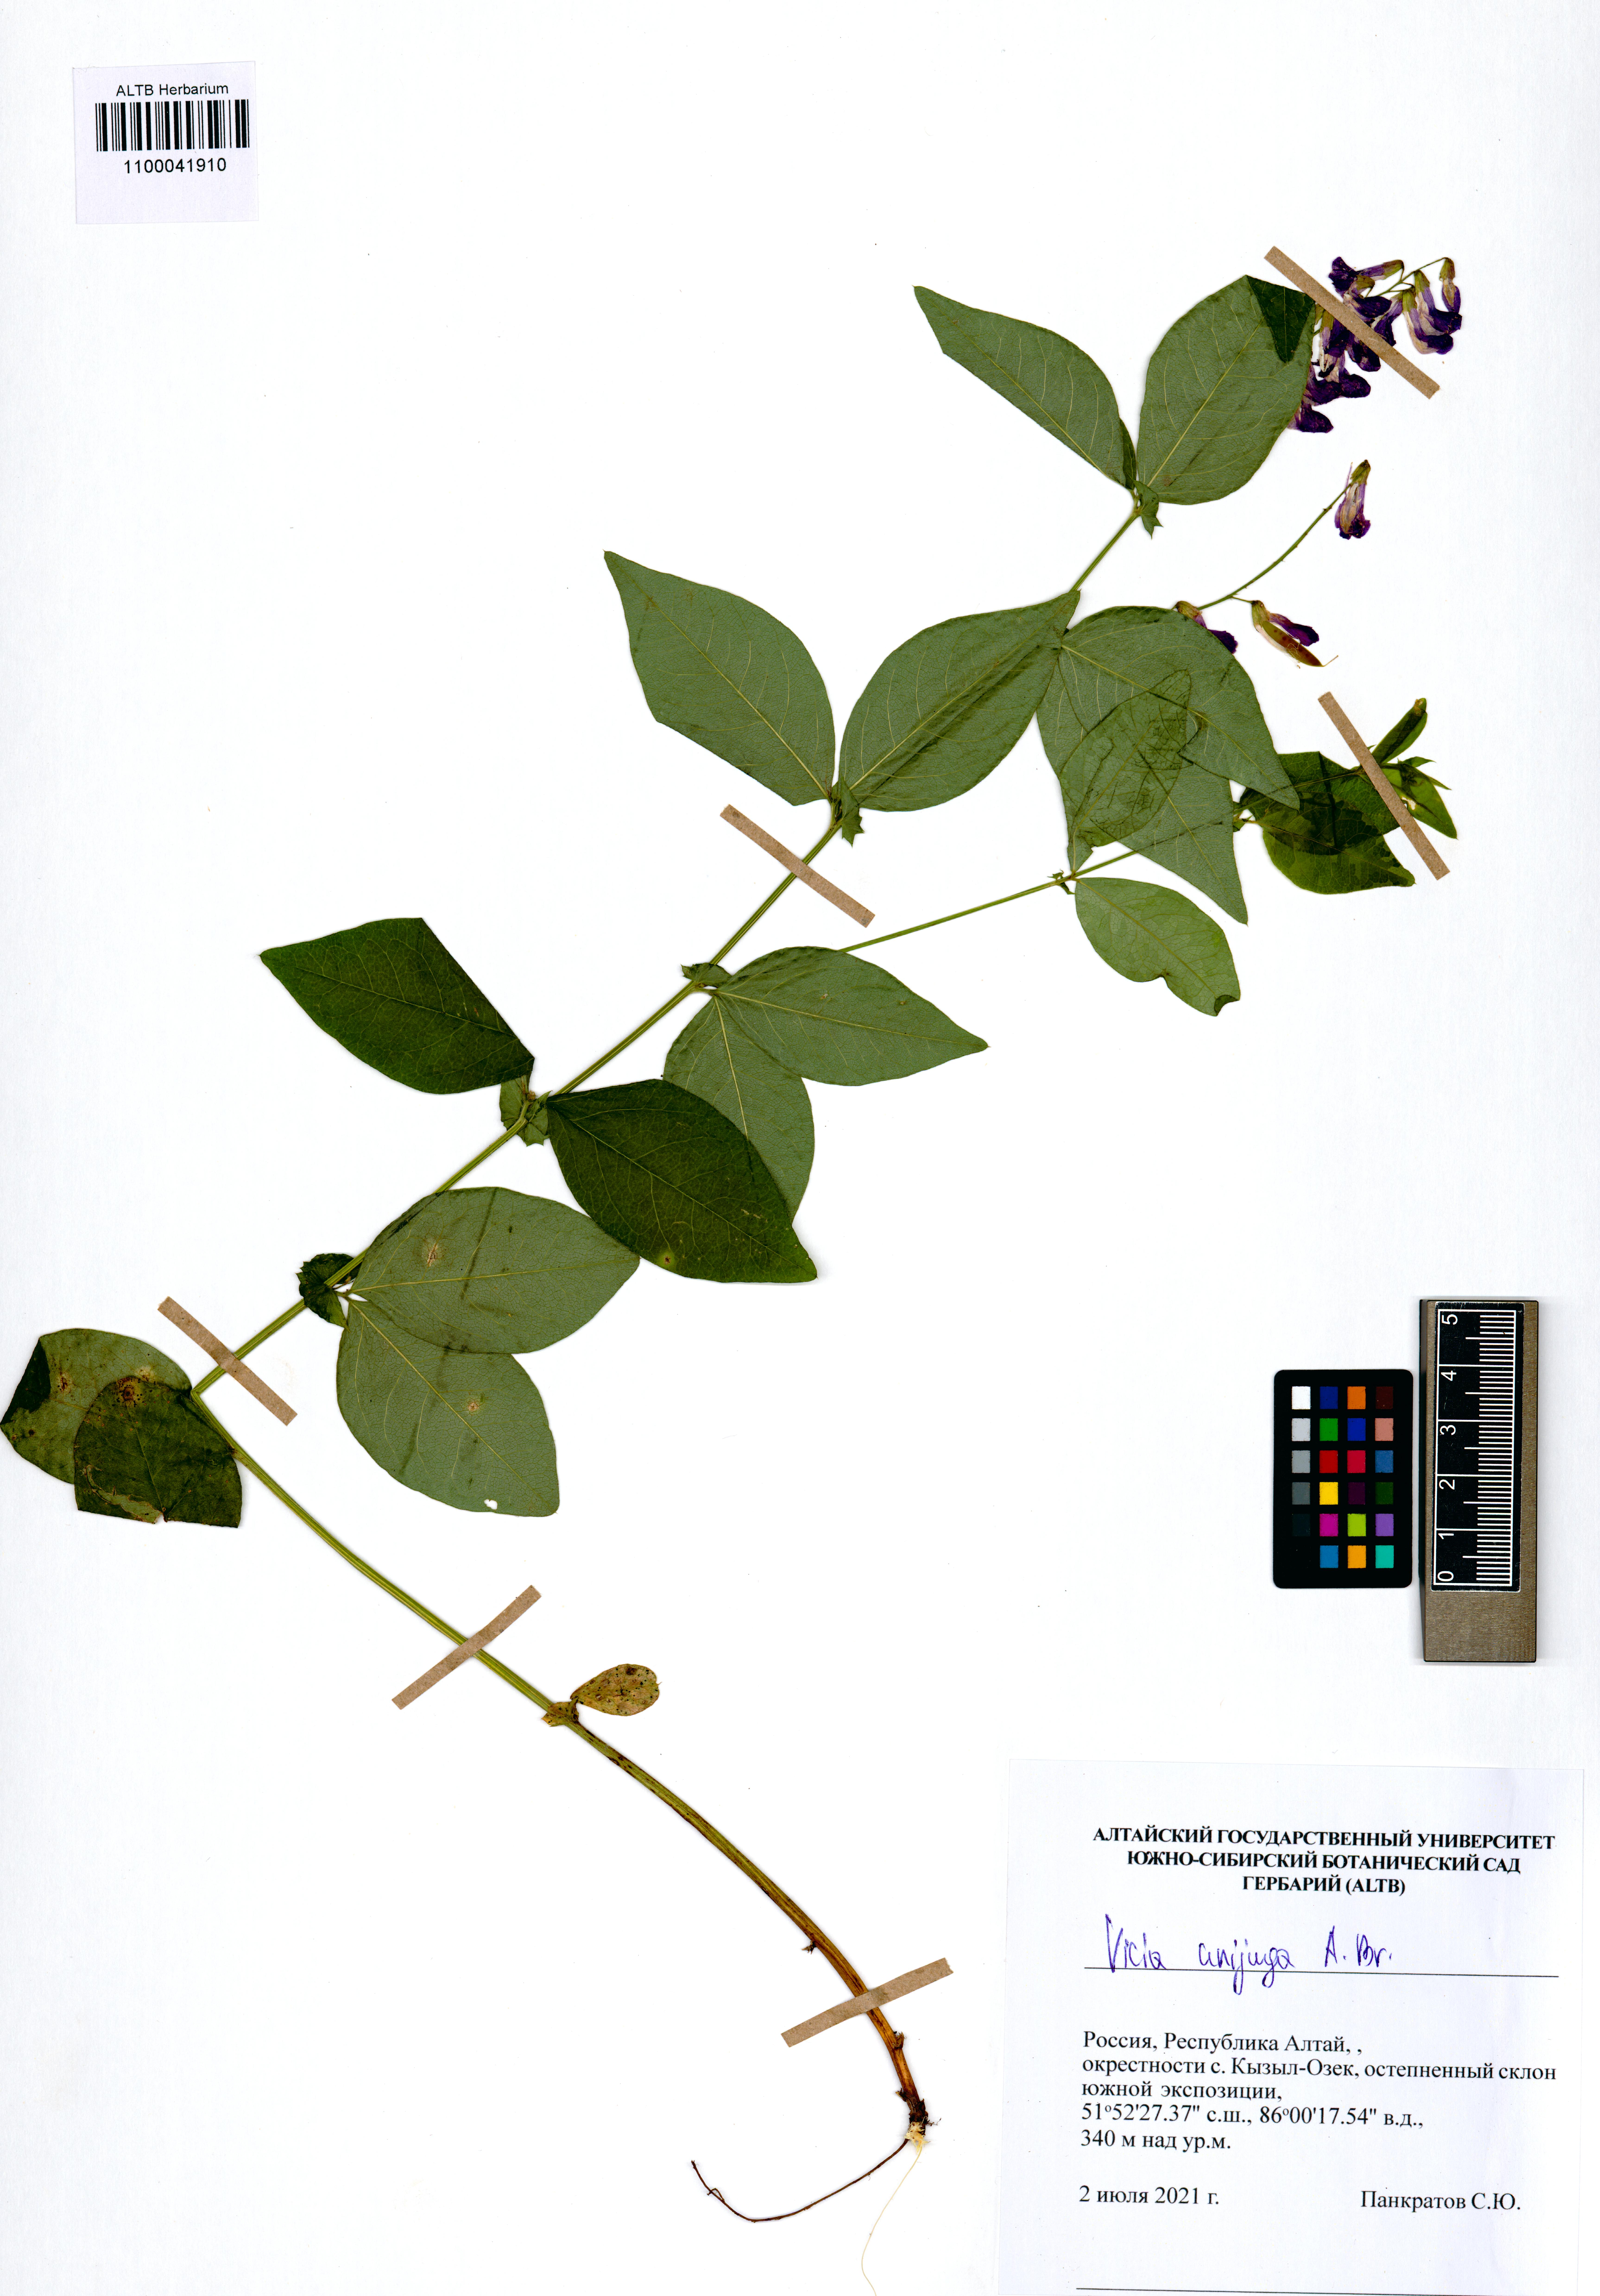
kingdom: Plantae
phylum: Tracheophyta
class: Magnoliopsida
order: Fabales
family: Fabaceae
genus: Vicia
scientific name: Vicia unijuga
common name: Two-leaf vetch
